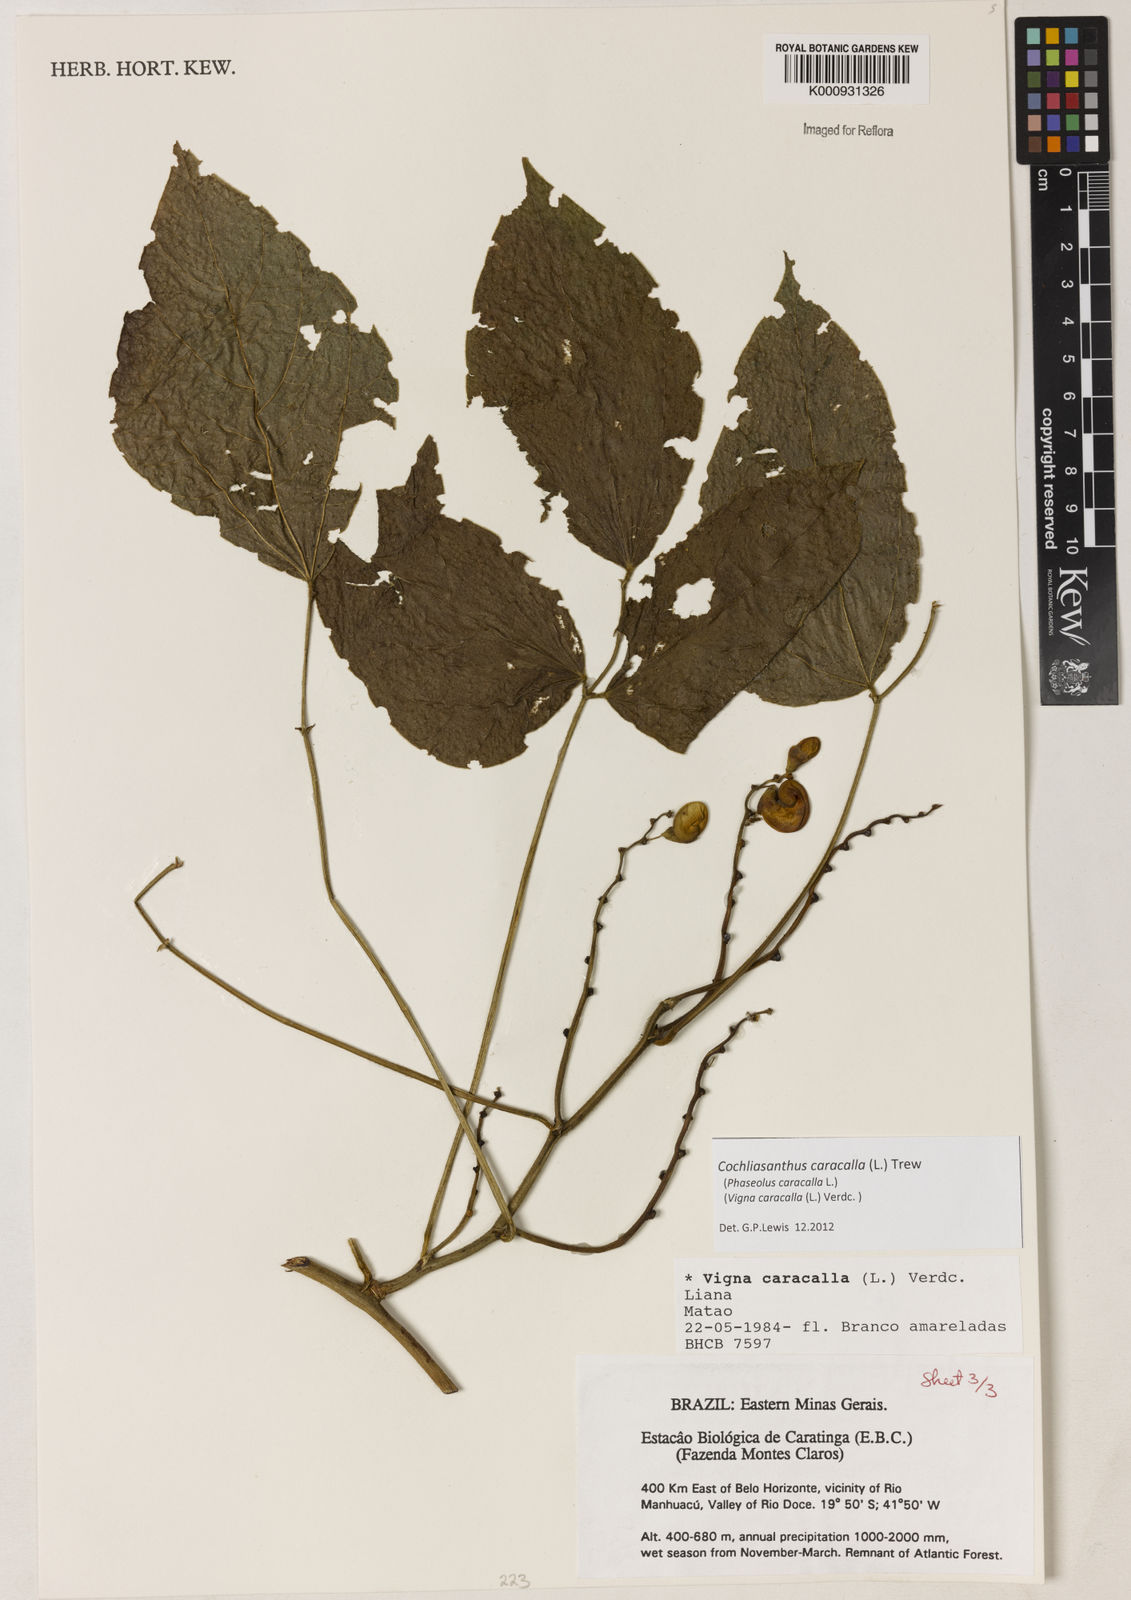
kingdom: Plantae
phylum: Tracheophyta
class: Magnoliopsida
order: Fabales
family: Fabaceae
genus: Cochliasanthus
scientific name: Cochliasanthus caracalla
